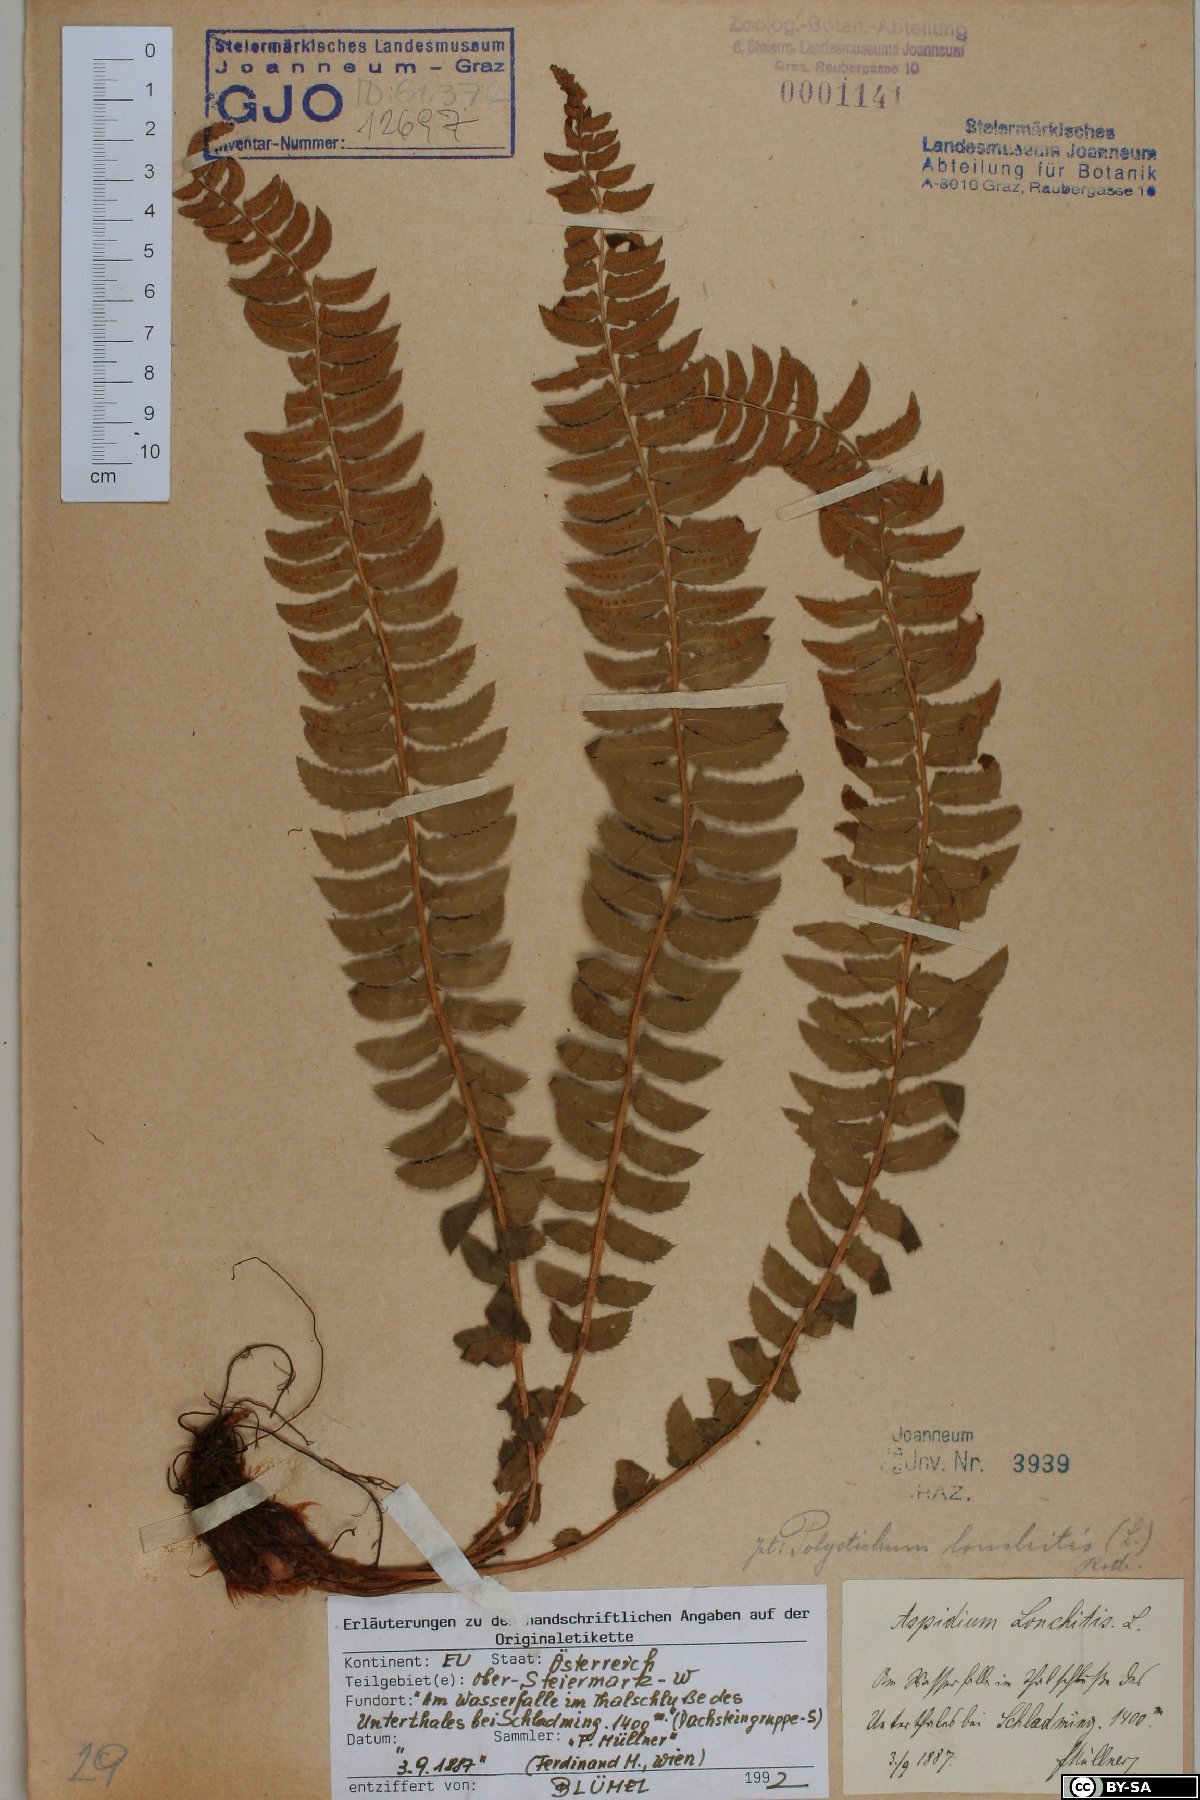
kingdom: Plantae
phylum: Tracheophyta
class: Polypodiopsida
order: Polypodiales
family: Dryopteridaceae
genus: Polystichum
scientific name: Polystichum lonchitis
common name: Holly fern
